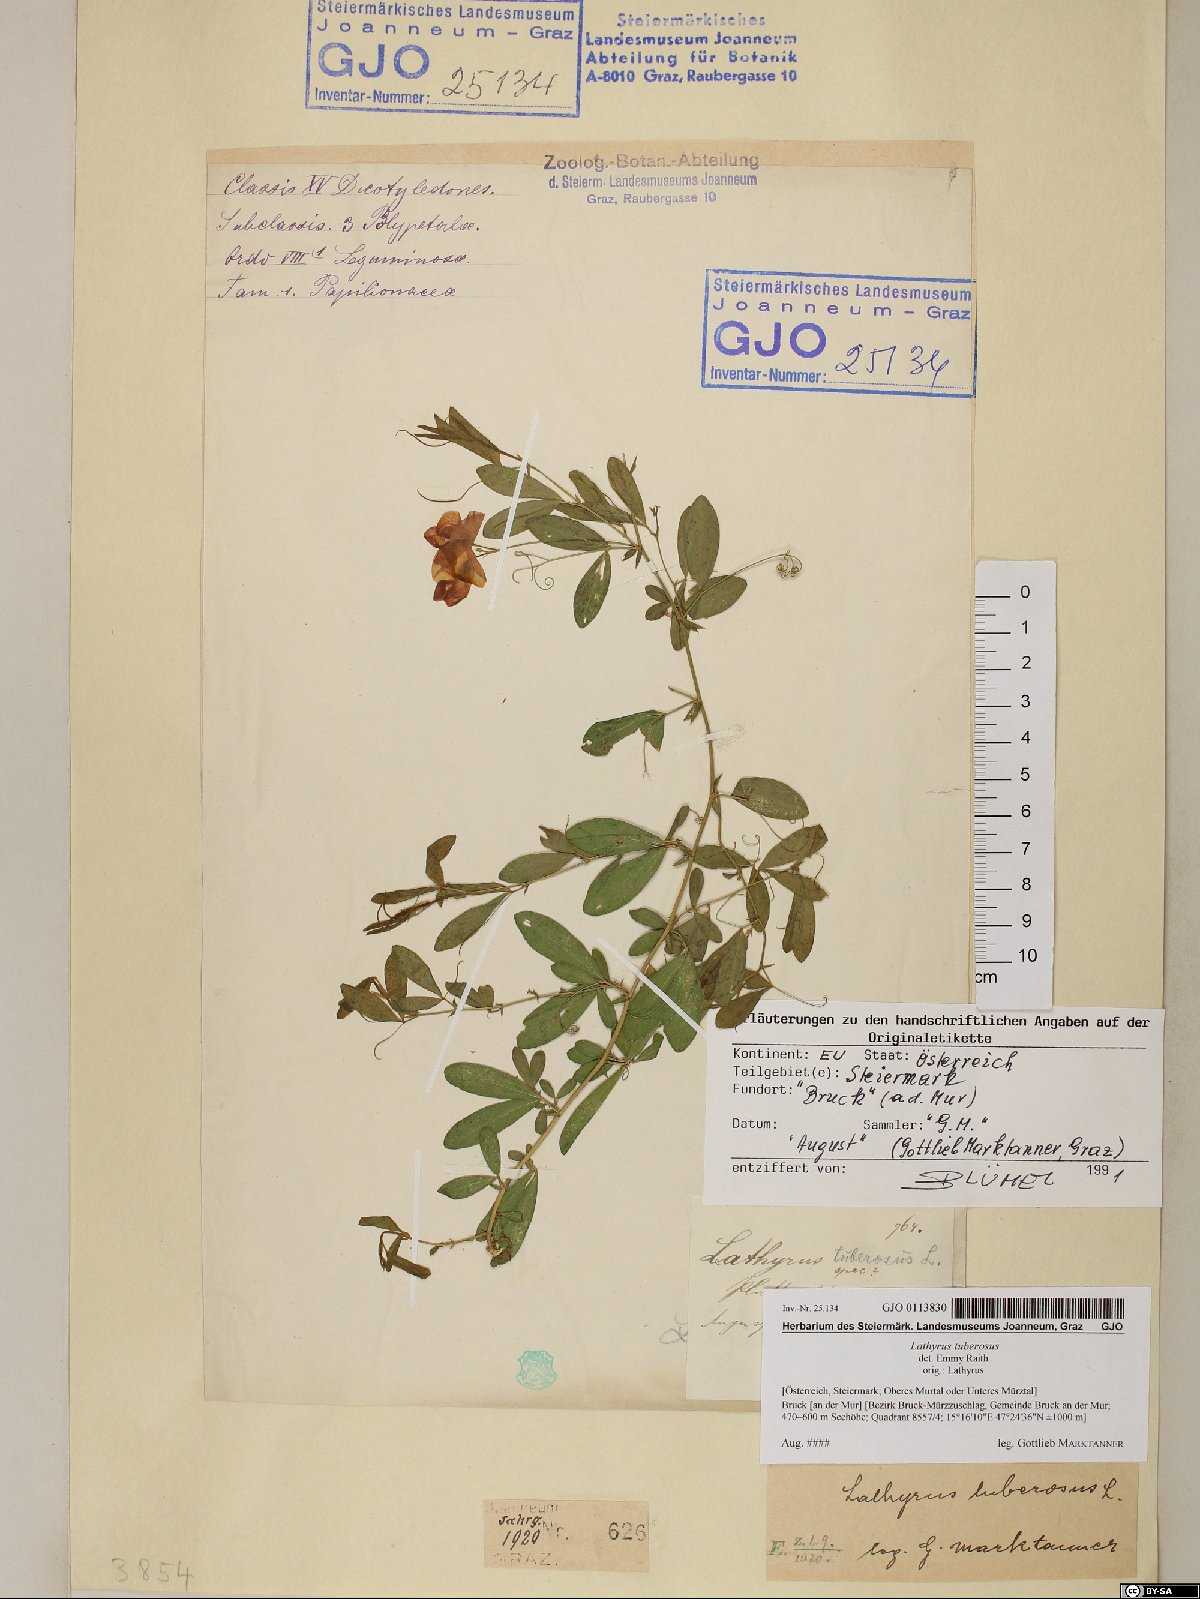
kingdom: Plantae
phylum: Tracheophyta
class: Magnoliopsida
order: Fabales
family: Fabaceae
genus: Lathyrus
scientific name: Lathyrus tuberosus
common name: Tuberous pea
